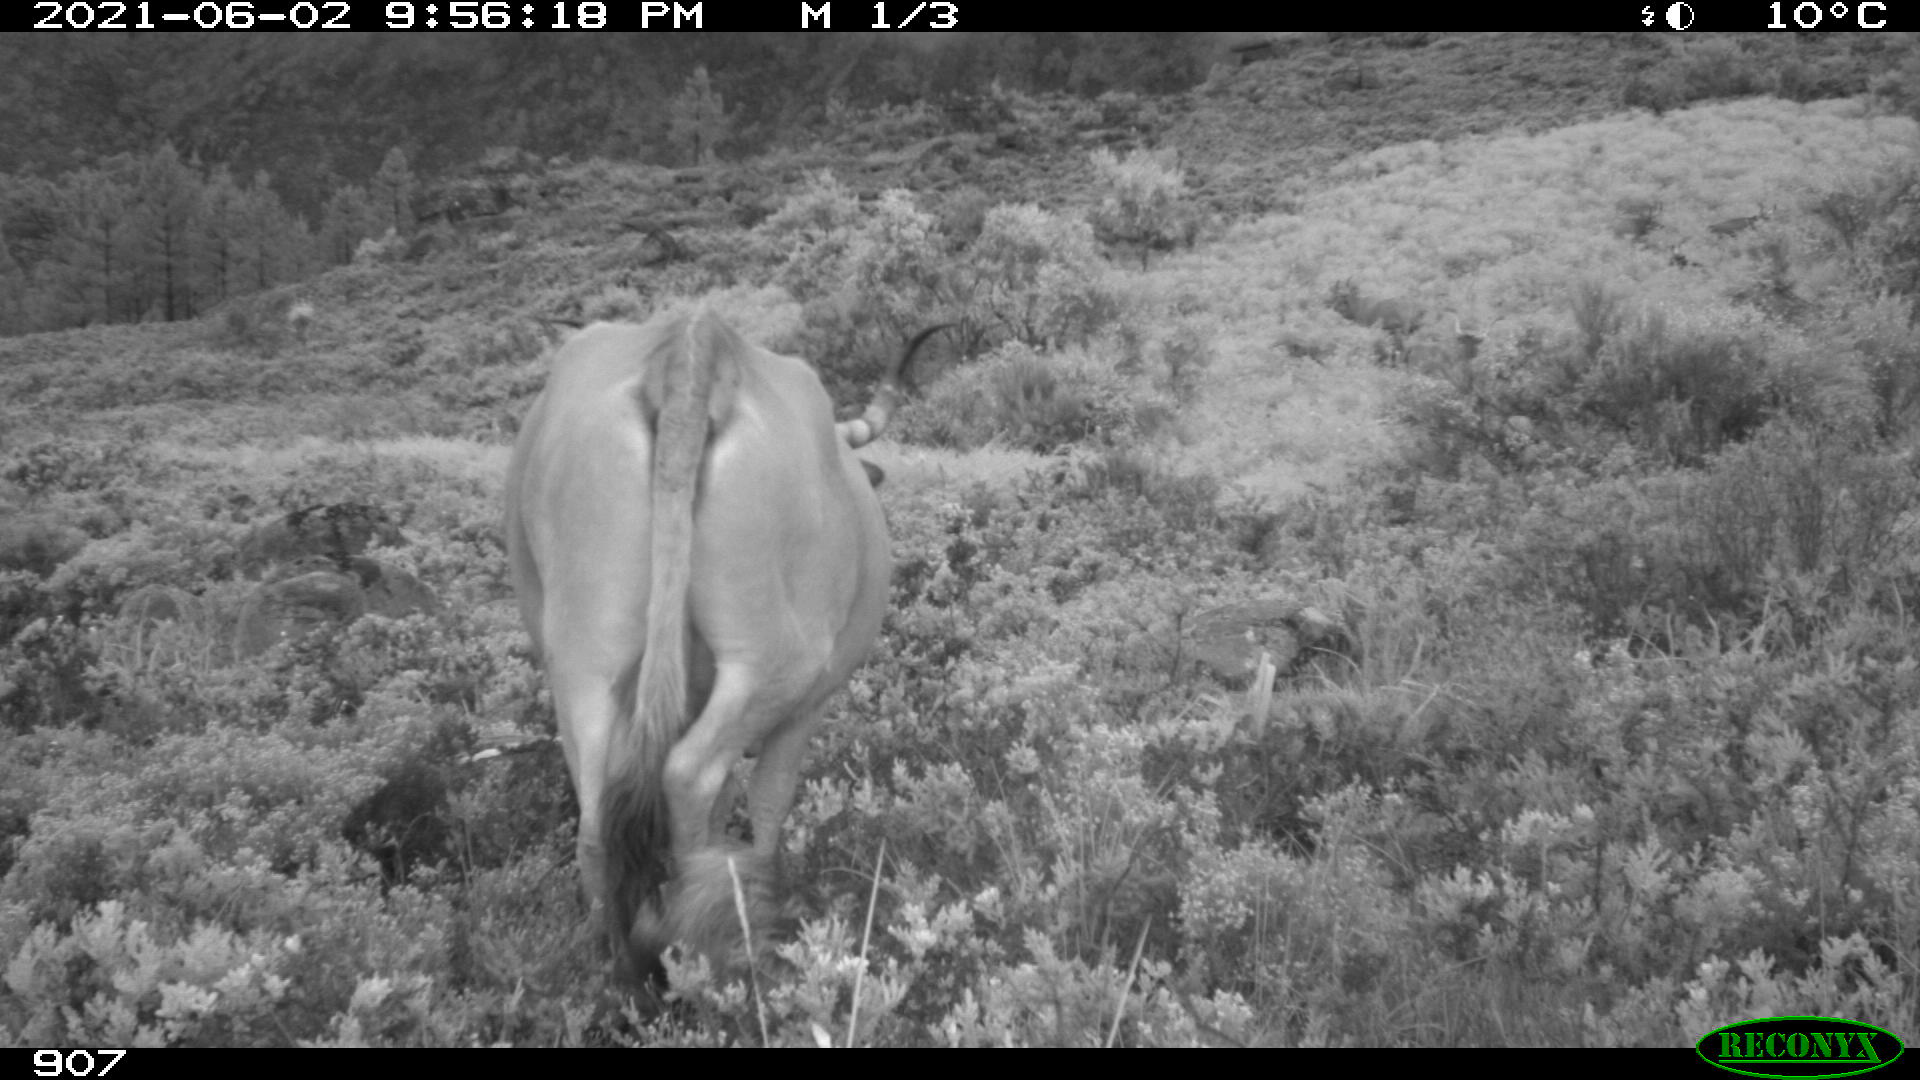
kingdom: Animalia
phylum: Chordata
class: Mammalia
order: Artiodactyla
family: Bovidae
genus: Bos
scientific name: Bos taurus
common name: Domesticated cattle
